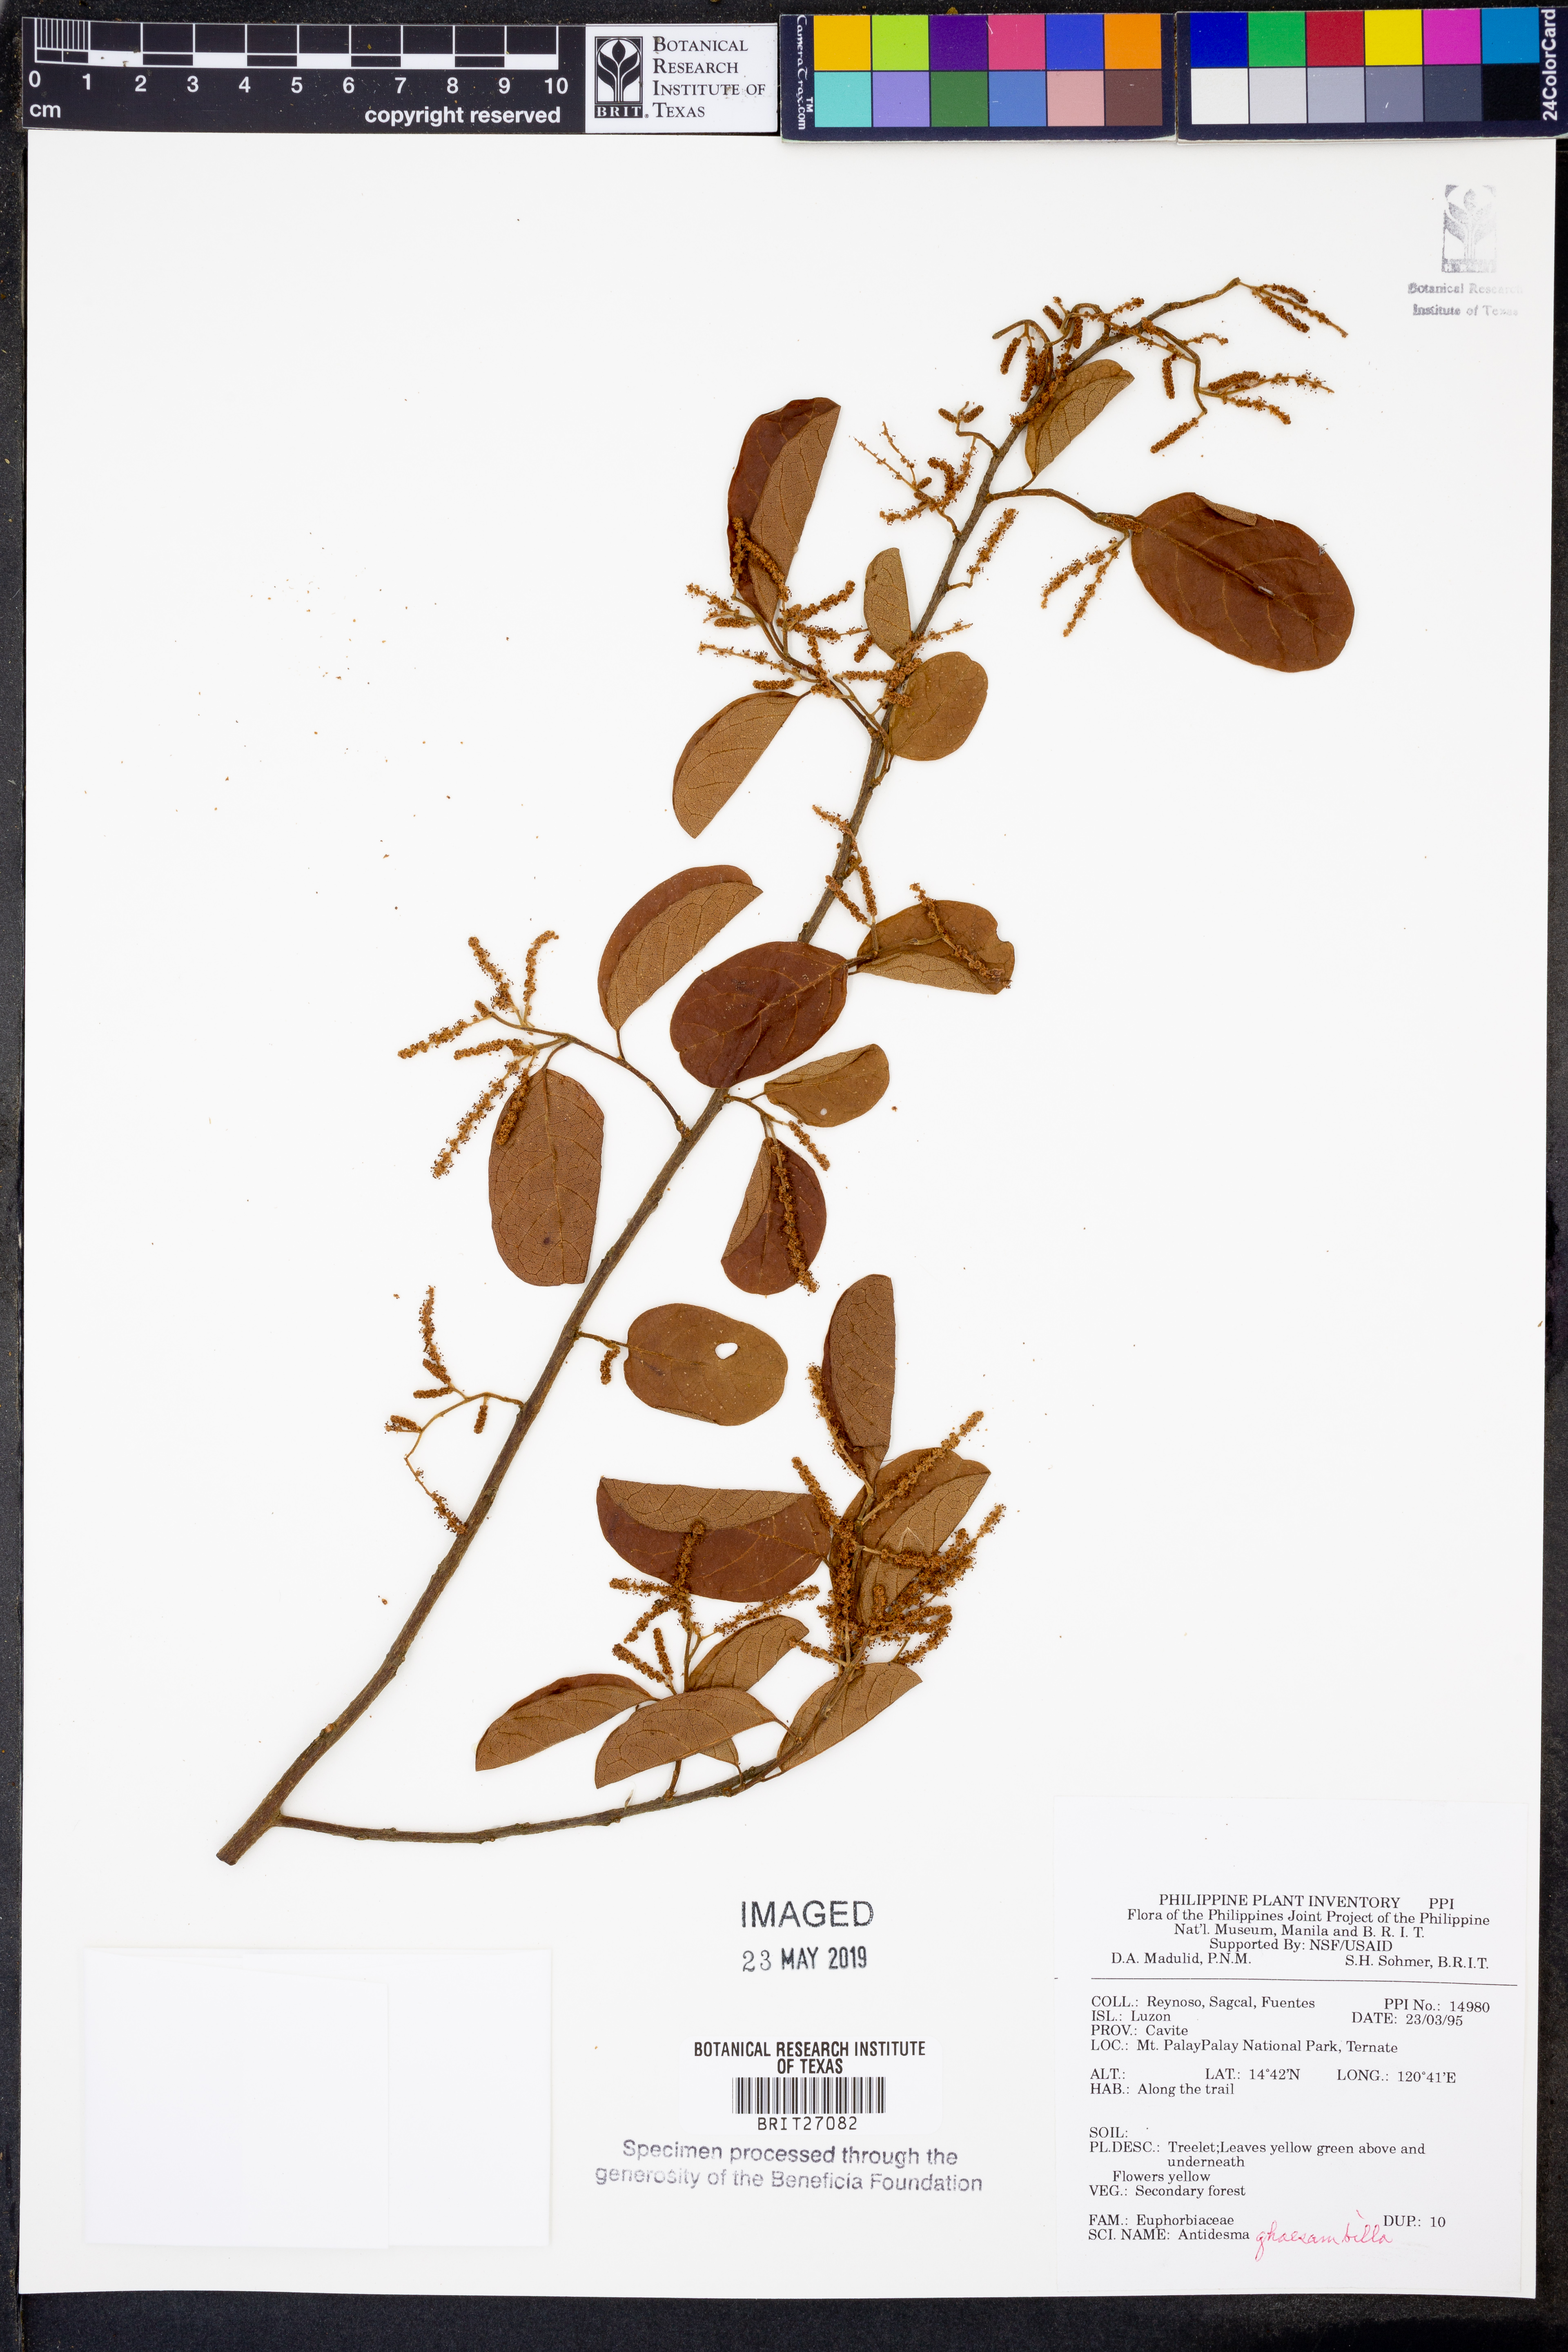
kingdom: Plantae
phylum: Tracheophyta
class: Magnoliopsida
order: Malpighiales
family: Phyllanthaceae
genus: Antidesma
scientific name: Antidesma ghaesembilla
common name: Black currant-tree
